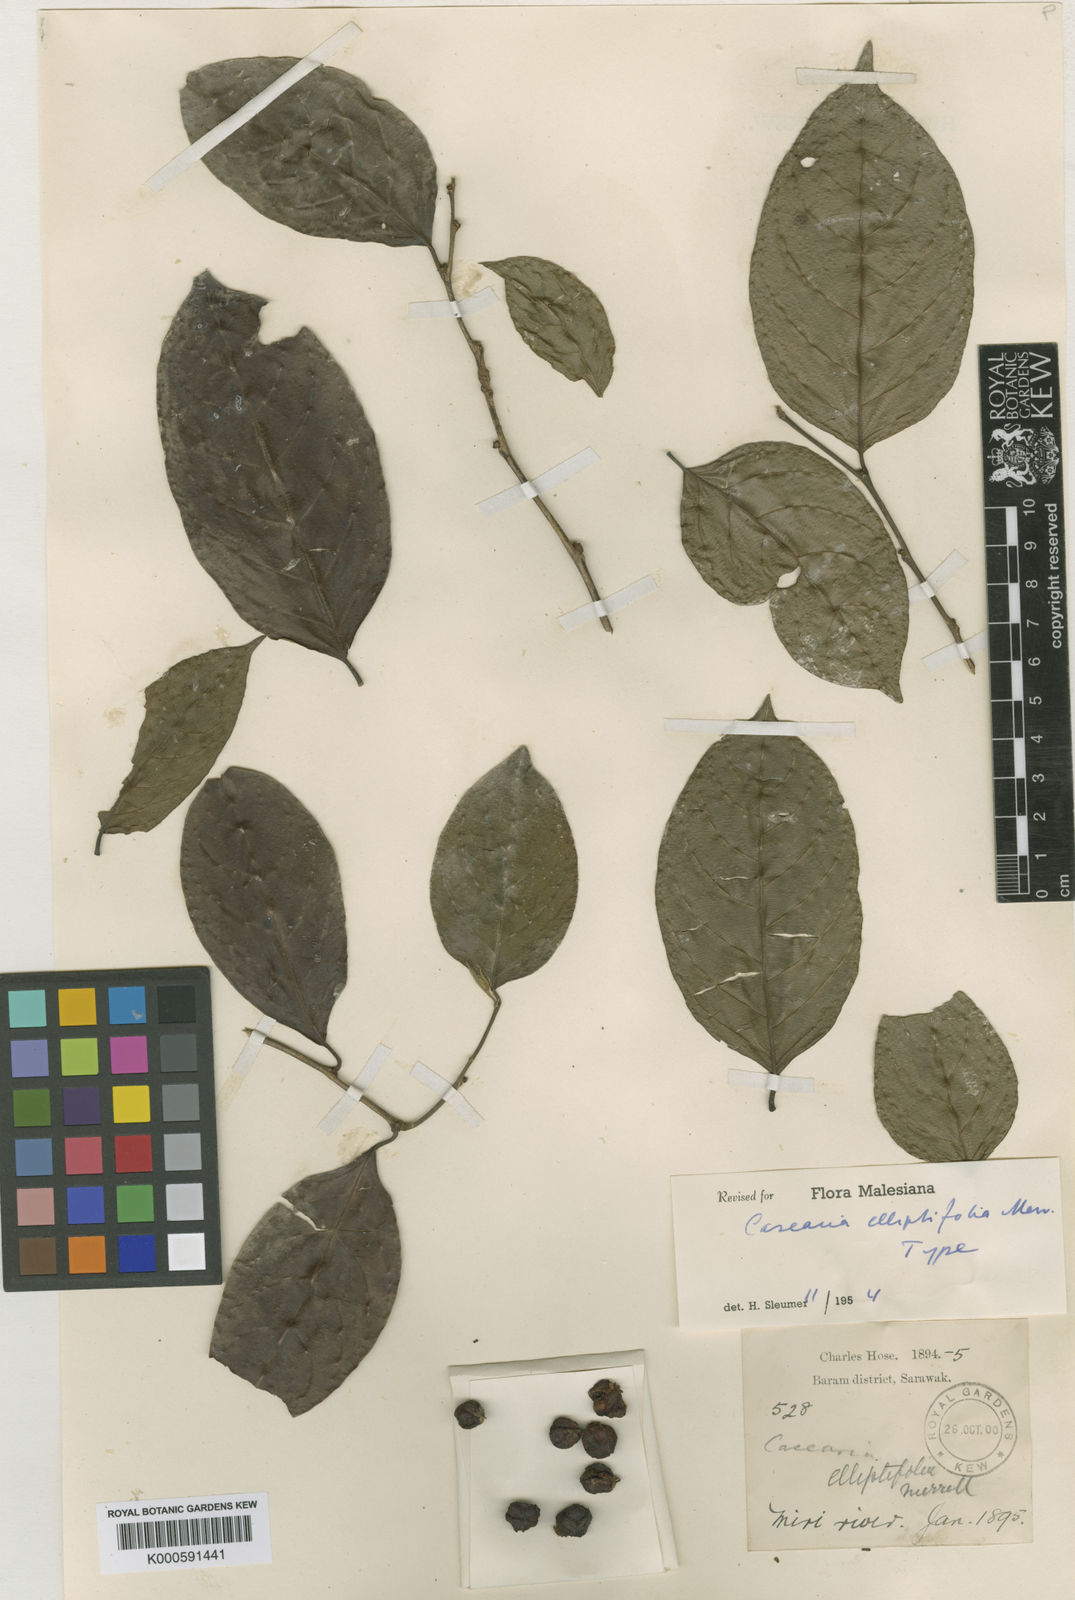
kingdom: Plantae
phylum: Tracheophyta
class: Magnoliopsida
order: Malpighiales
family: Salicaceae
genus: Casearia
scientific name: Casearia elliptifolia
